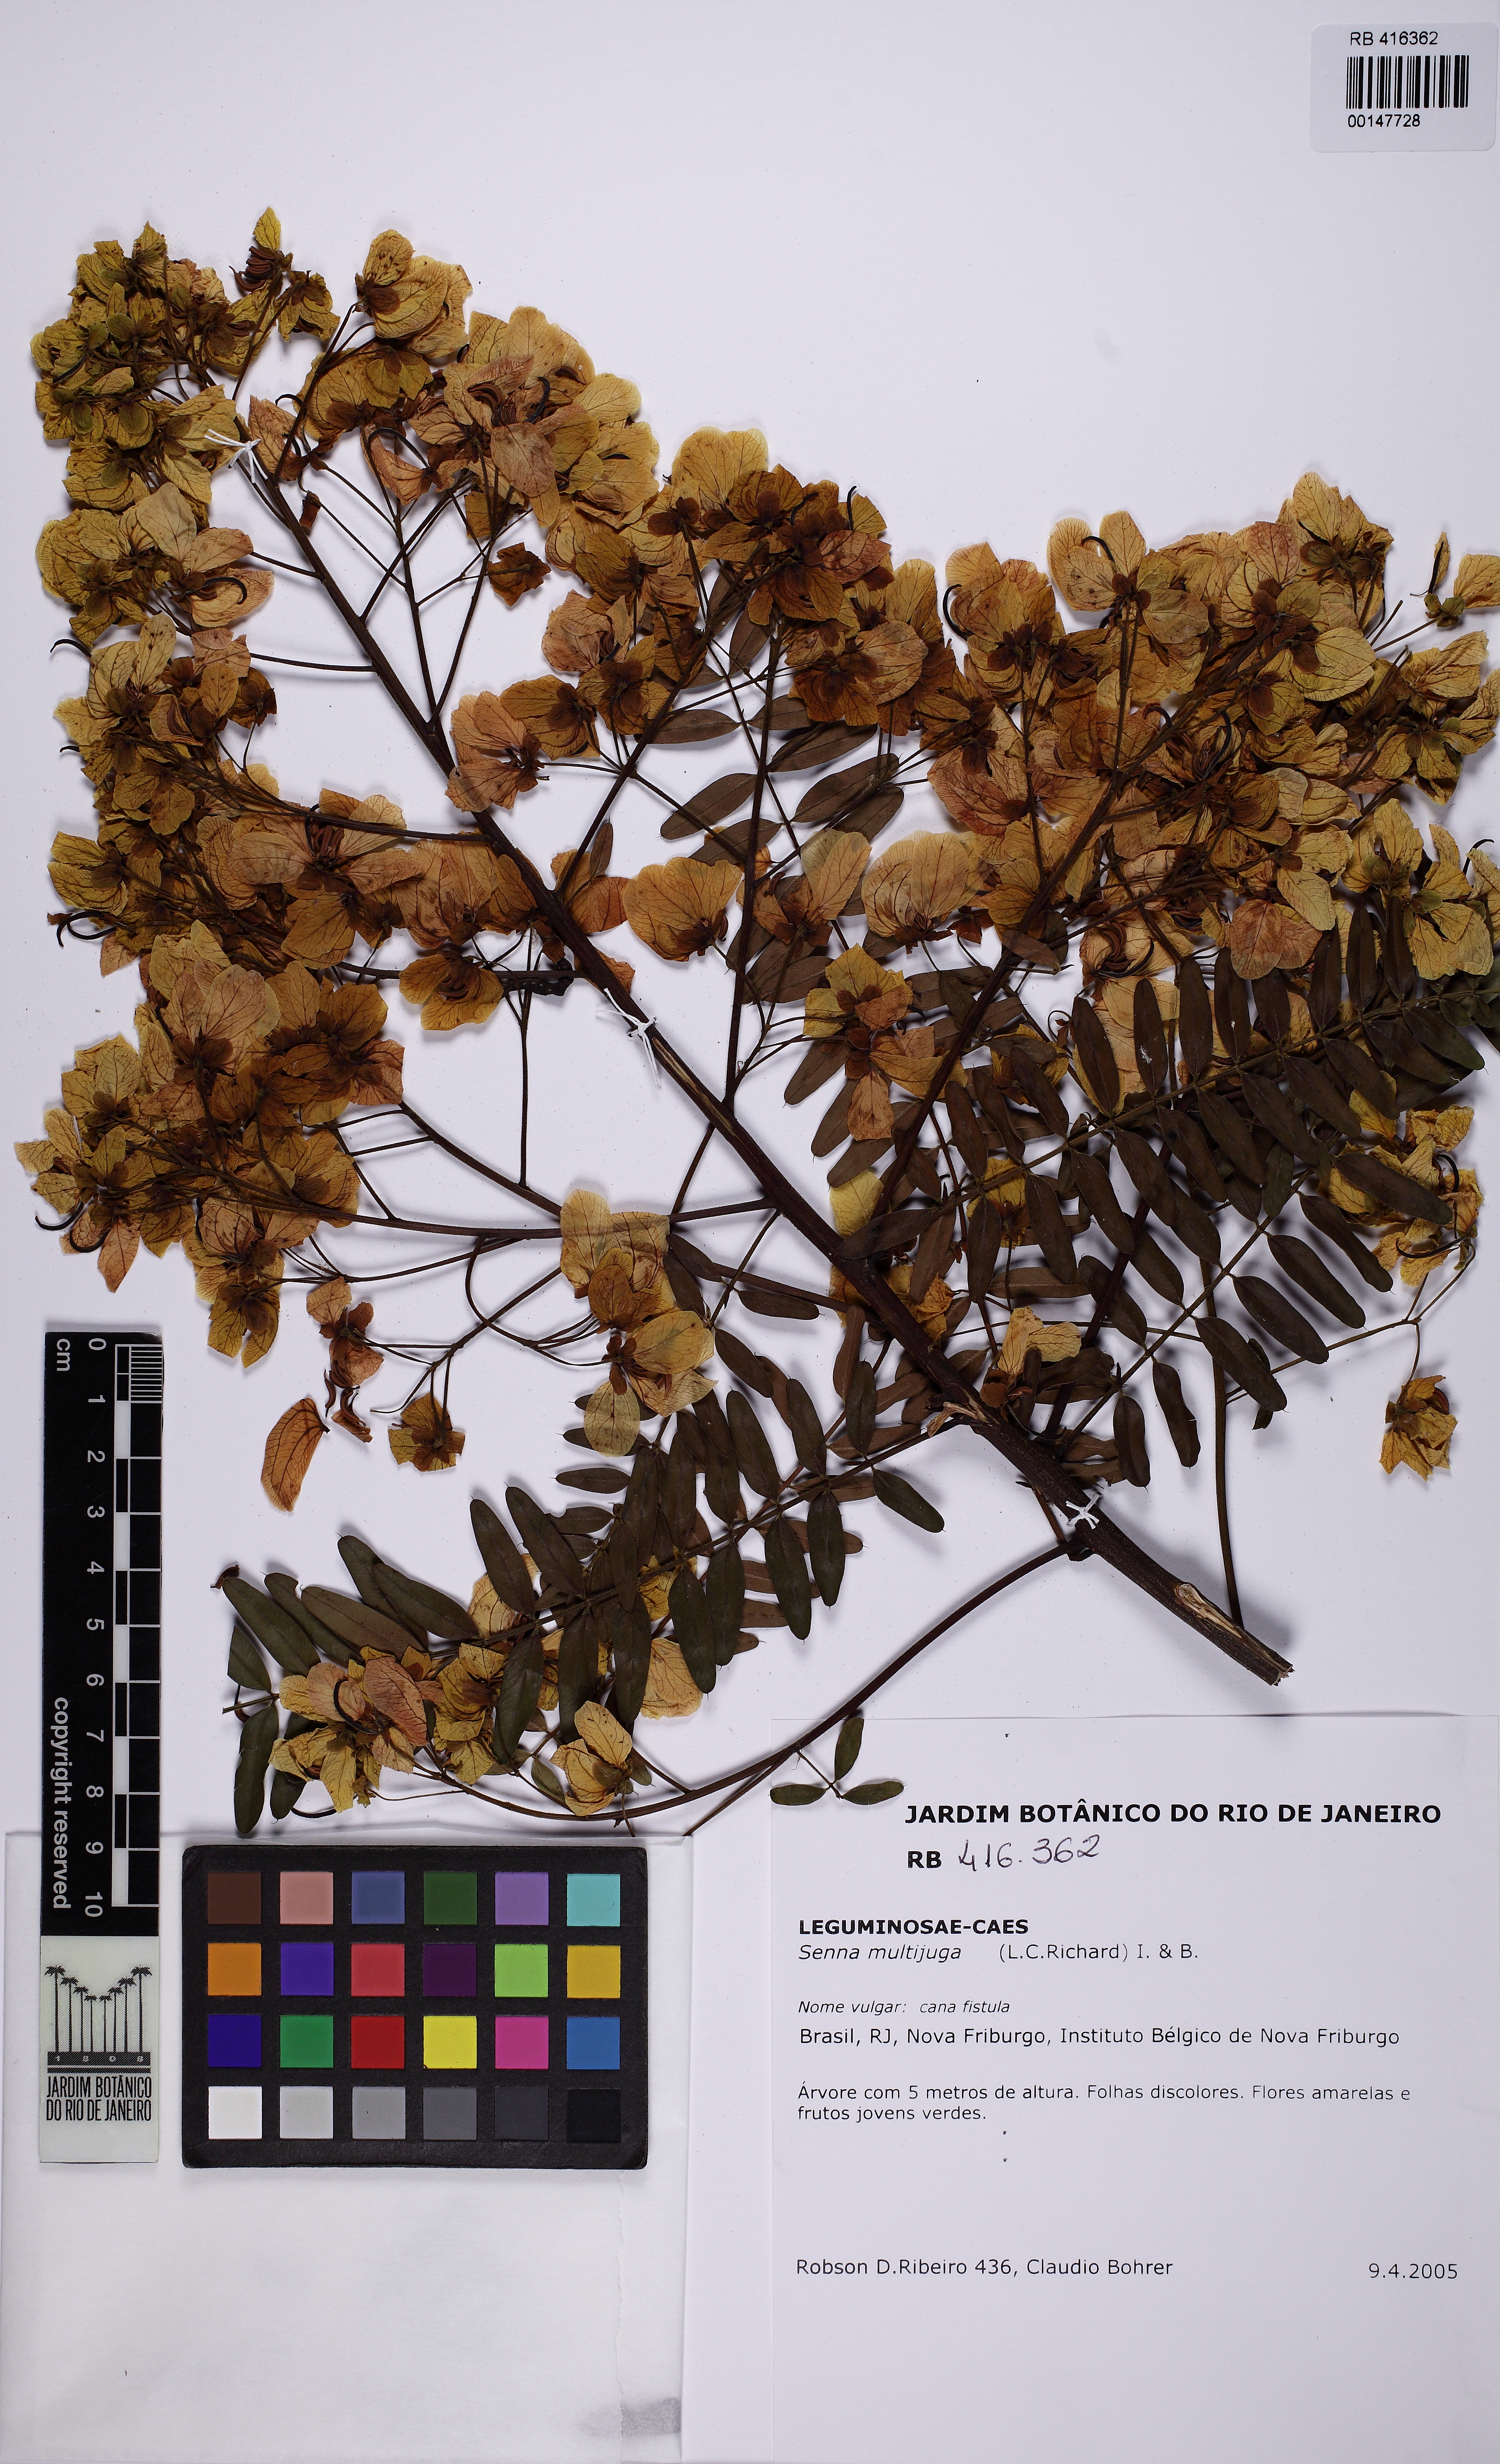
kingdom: Plantae
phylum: Tracheophyta
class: Magnoliopsida
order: Fabales
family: Fabaceae
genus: Senna
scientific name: Senna multijuga
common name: False sicklepod
